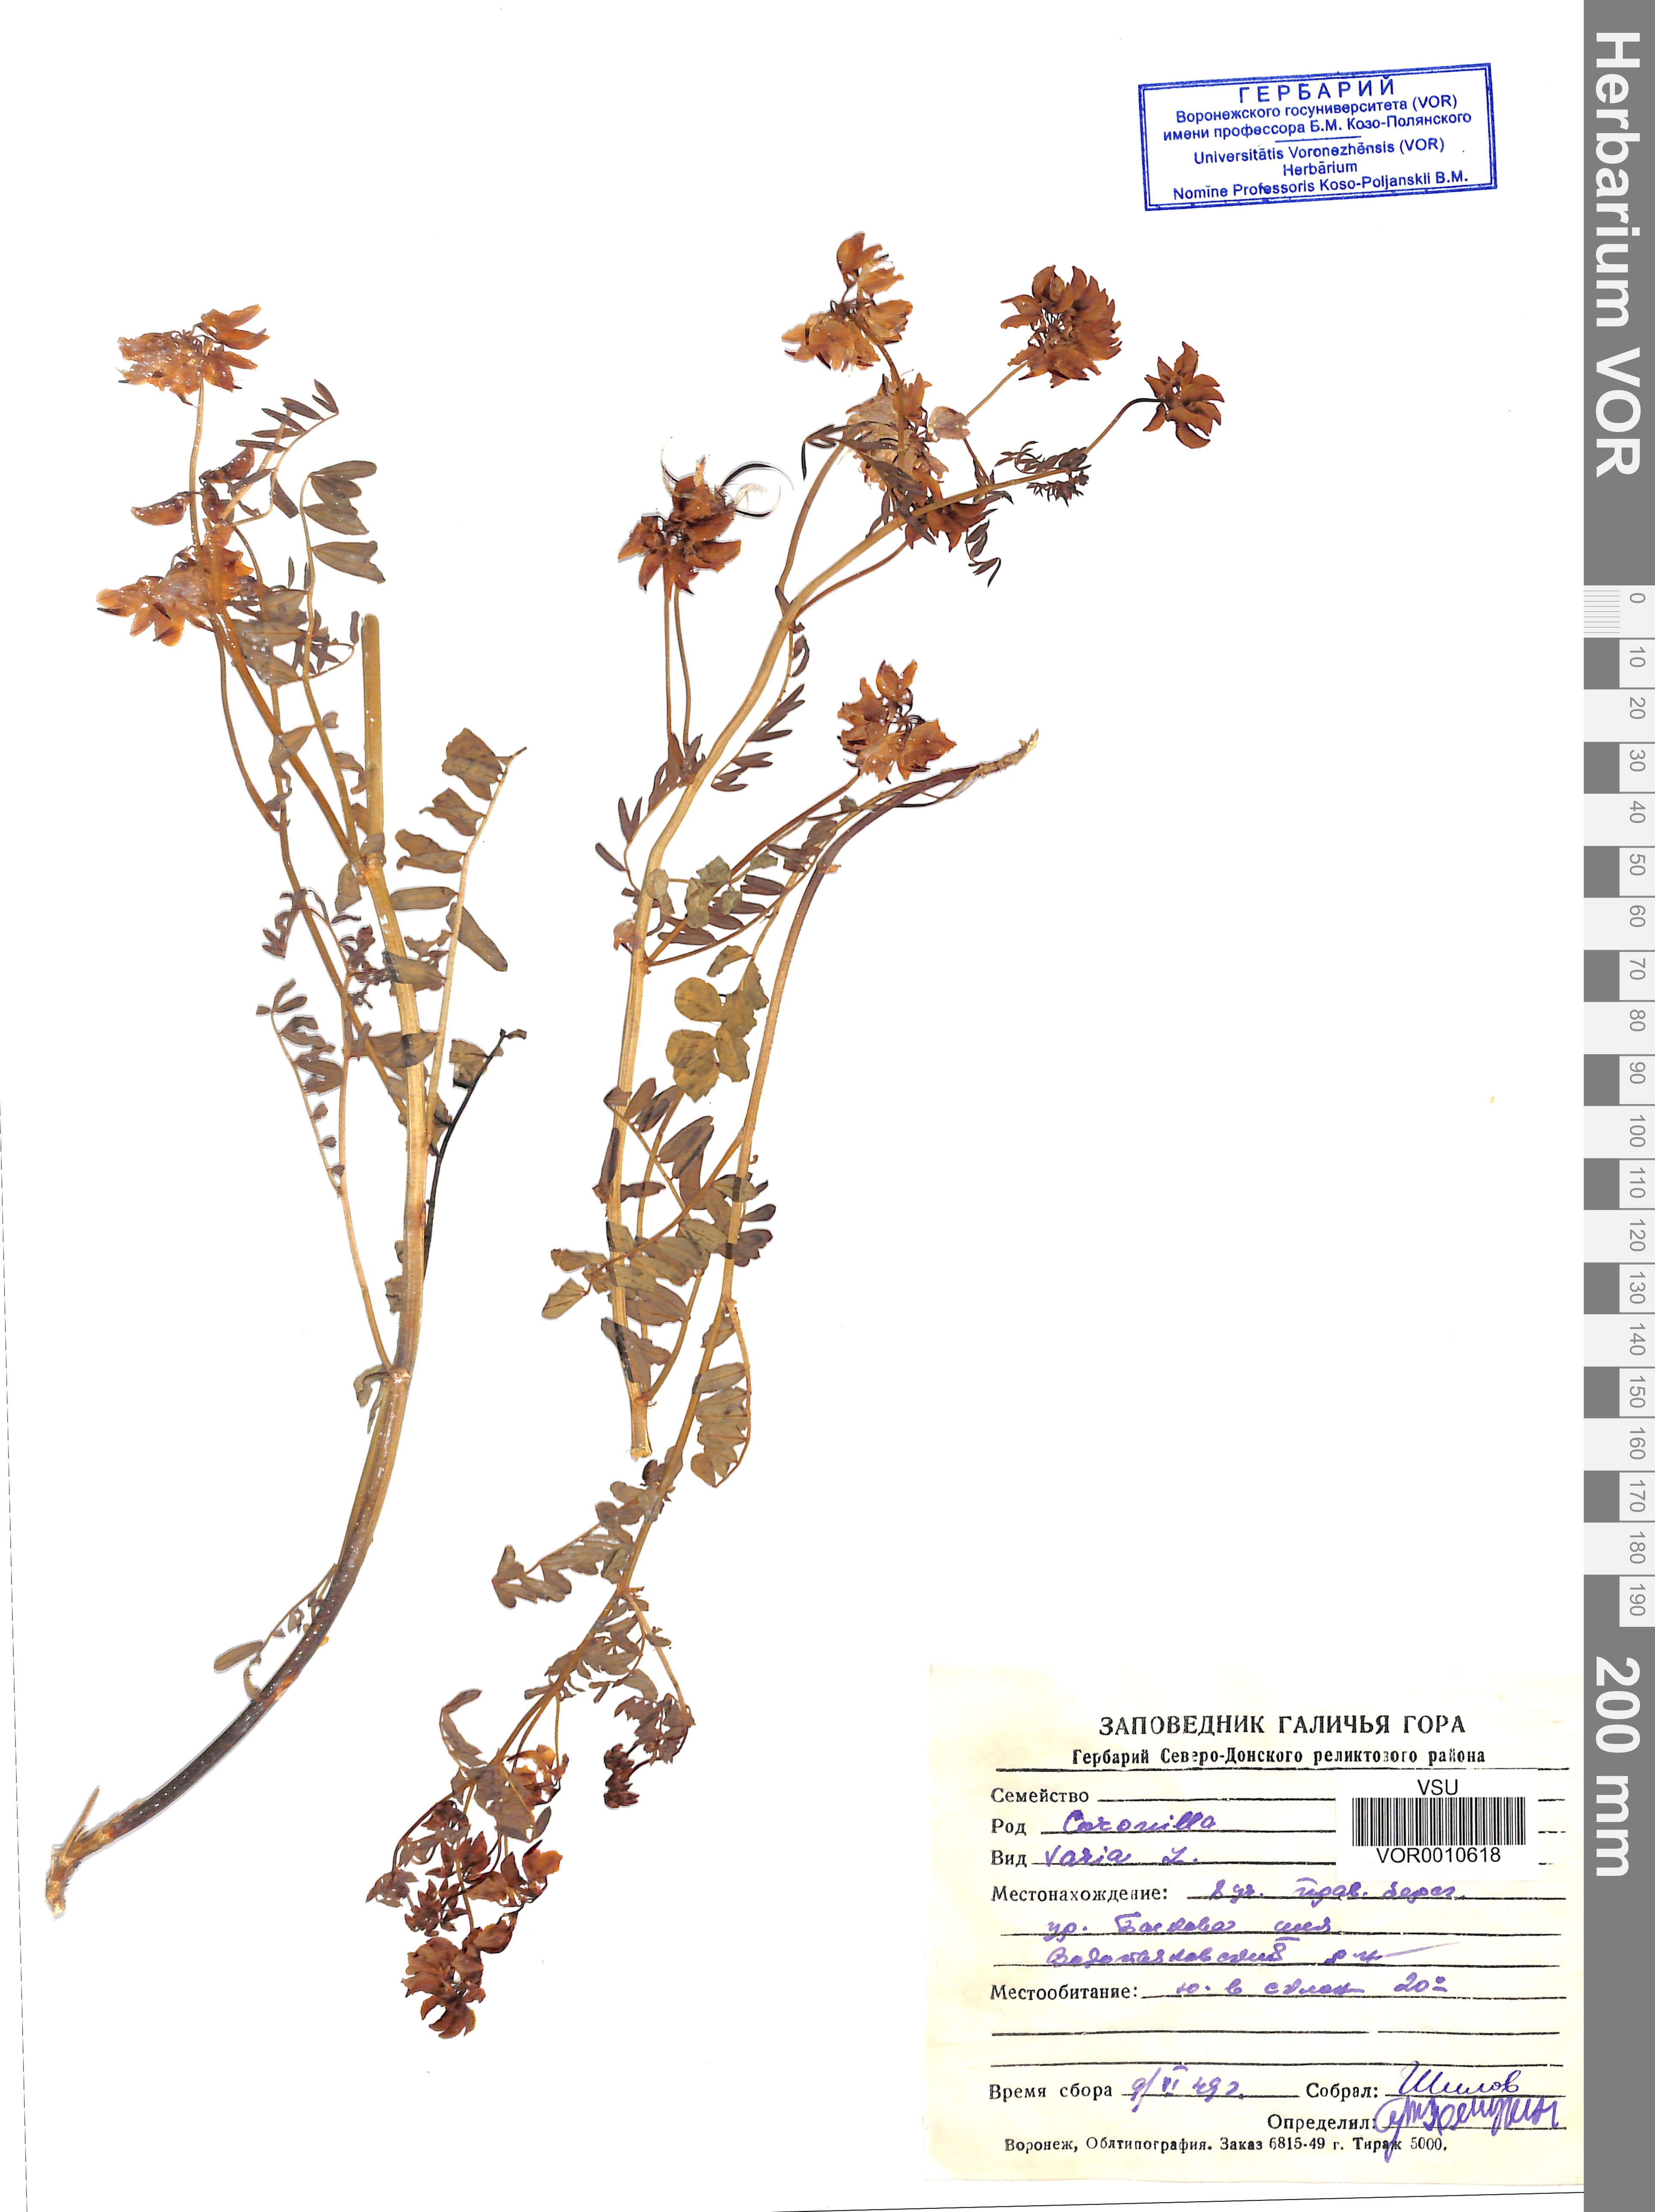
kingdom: Plantae
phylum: Tracheophyta
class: Magnoliopsida
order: Fabales
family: Fabaceae
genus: Coronilla
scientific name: Coronilla varia
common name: Crownvetch
